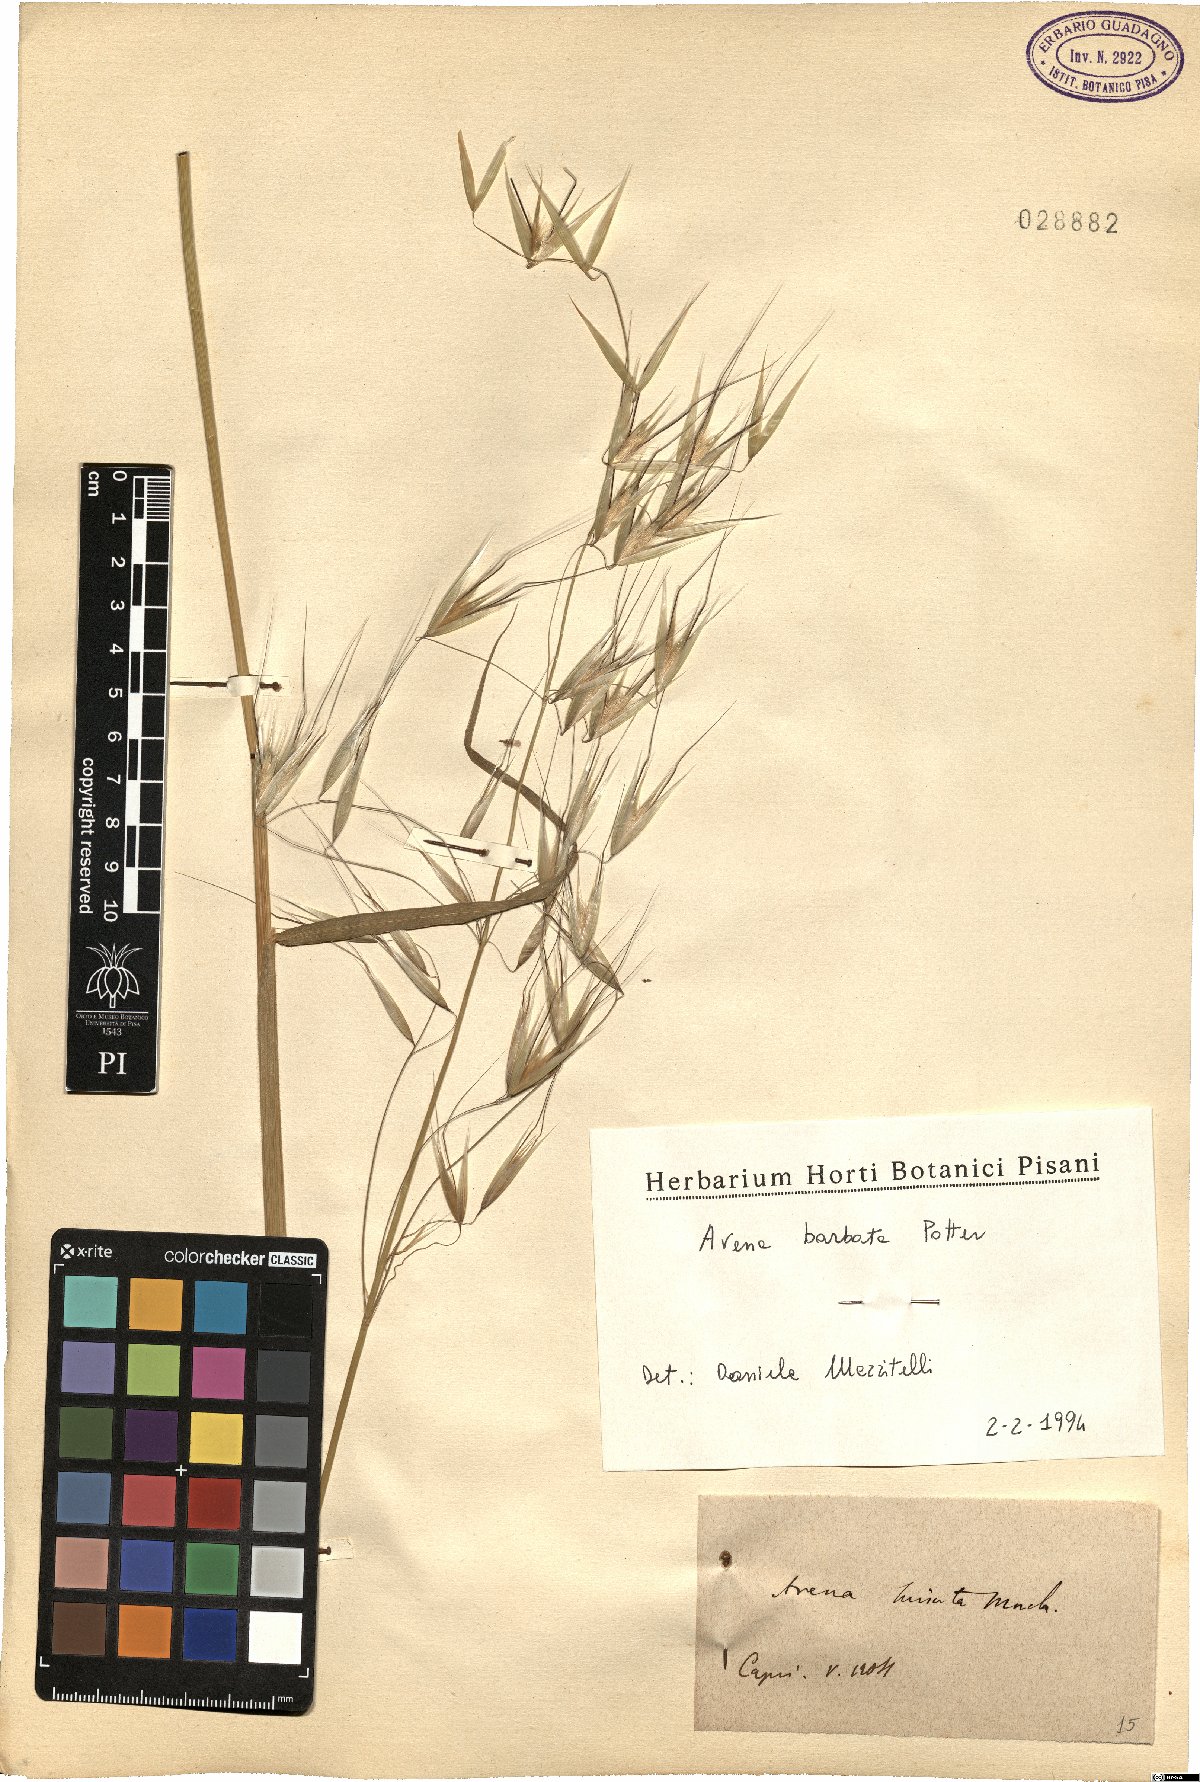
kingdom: Plantae
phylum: Tracheophyta
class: Liliopsida
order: Poales
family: Poaceae
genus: Avena
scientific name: Avena barbata
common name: Slender oat
